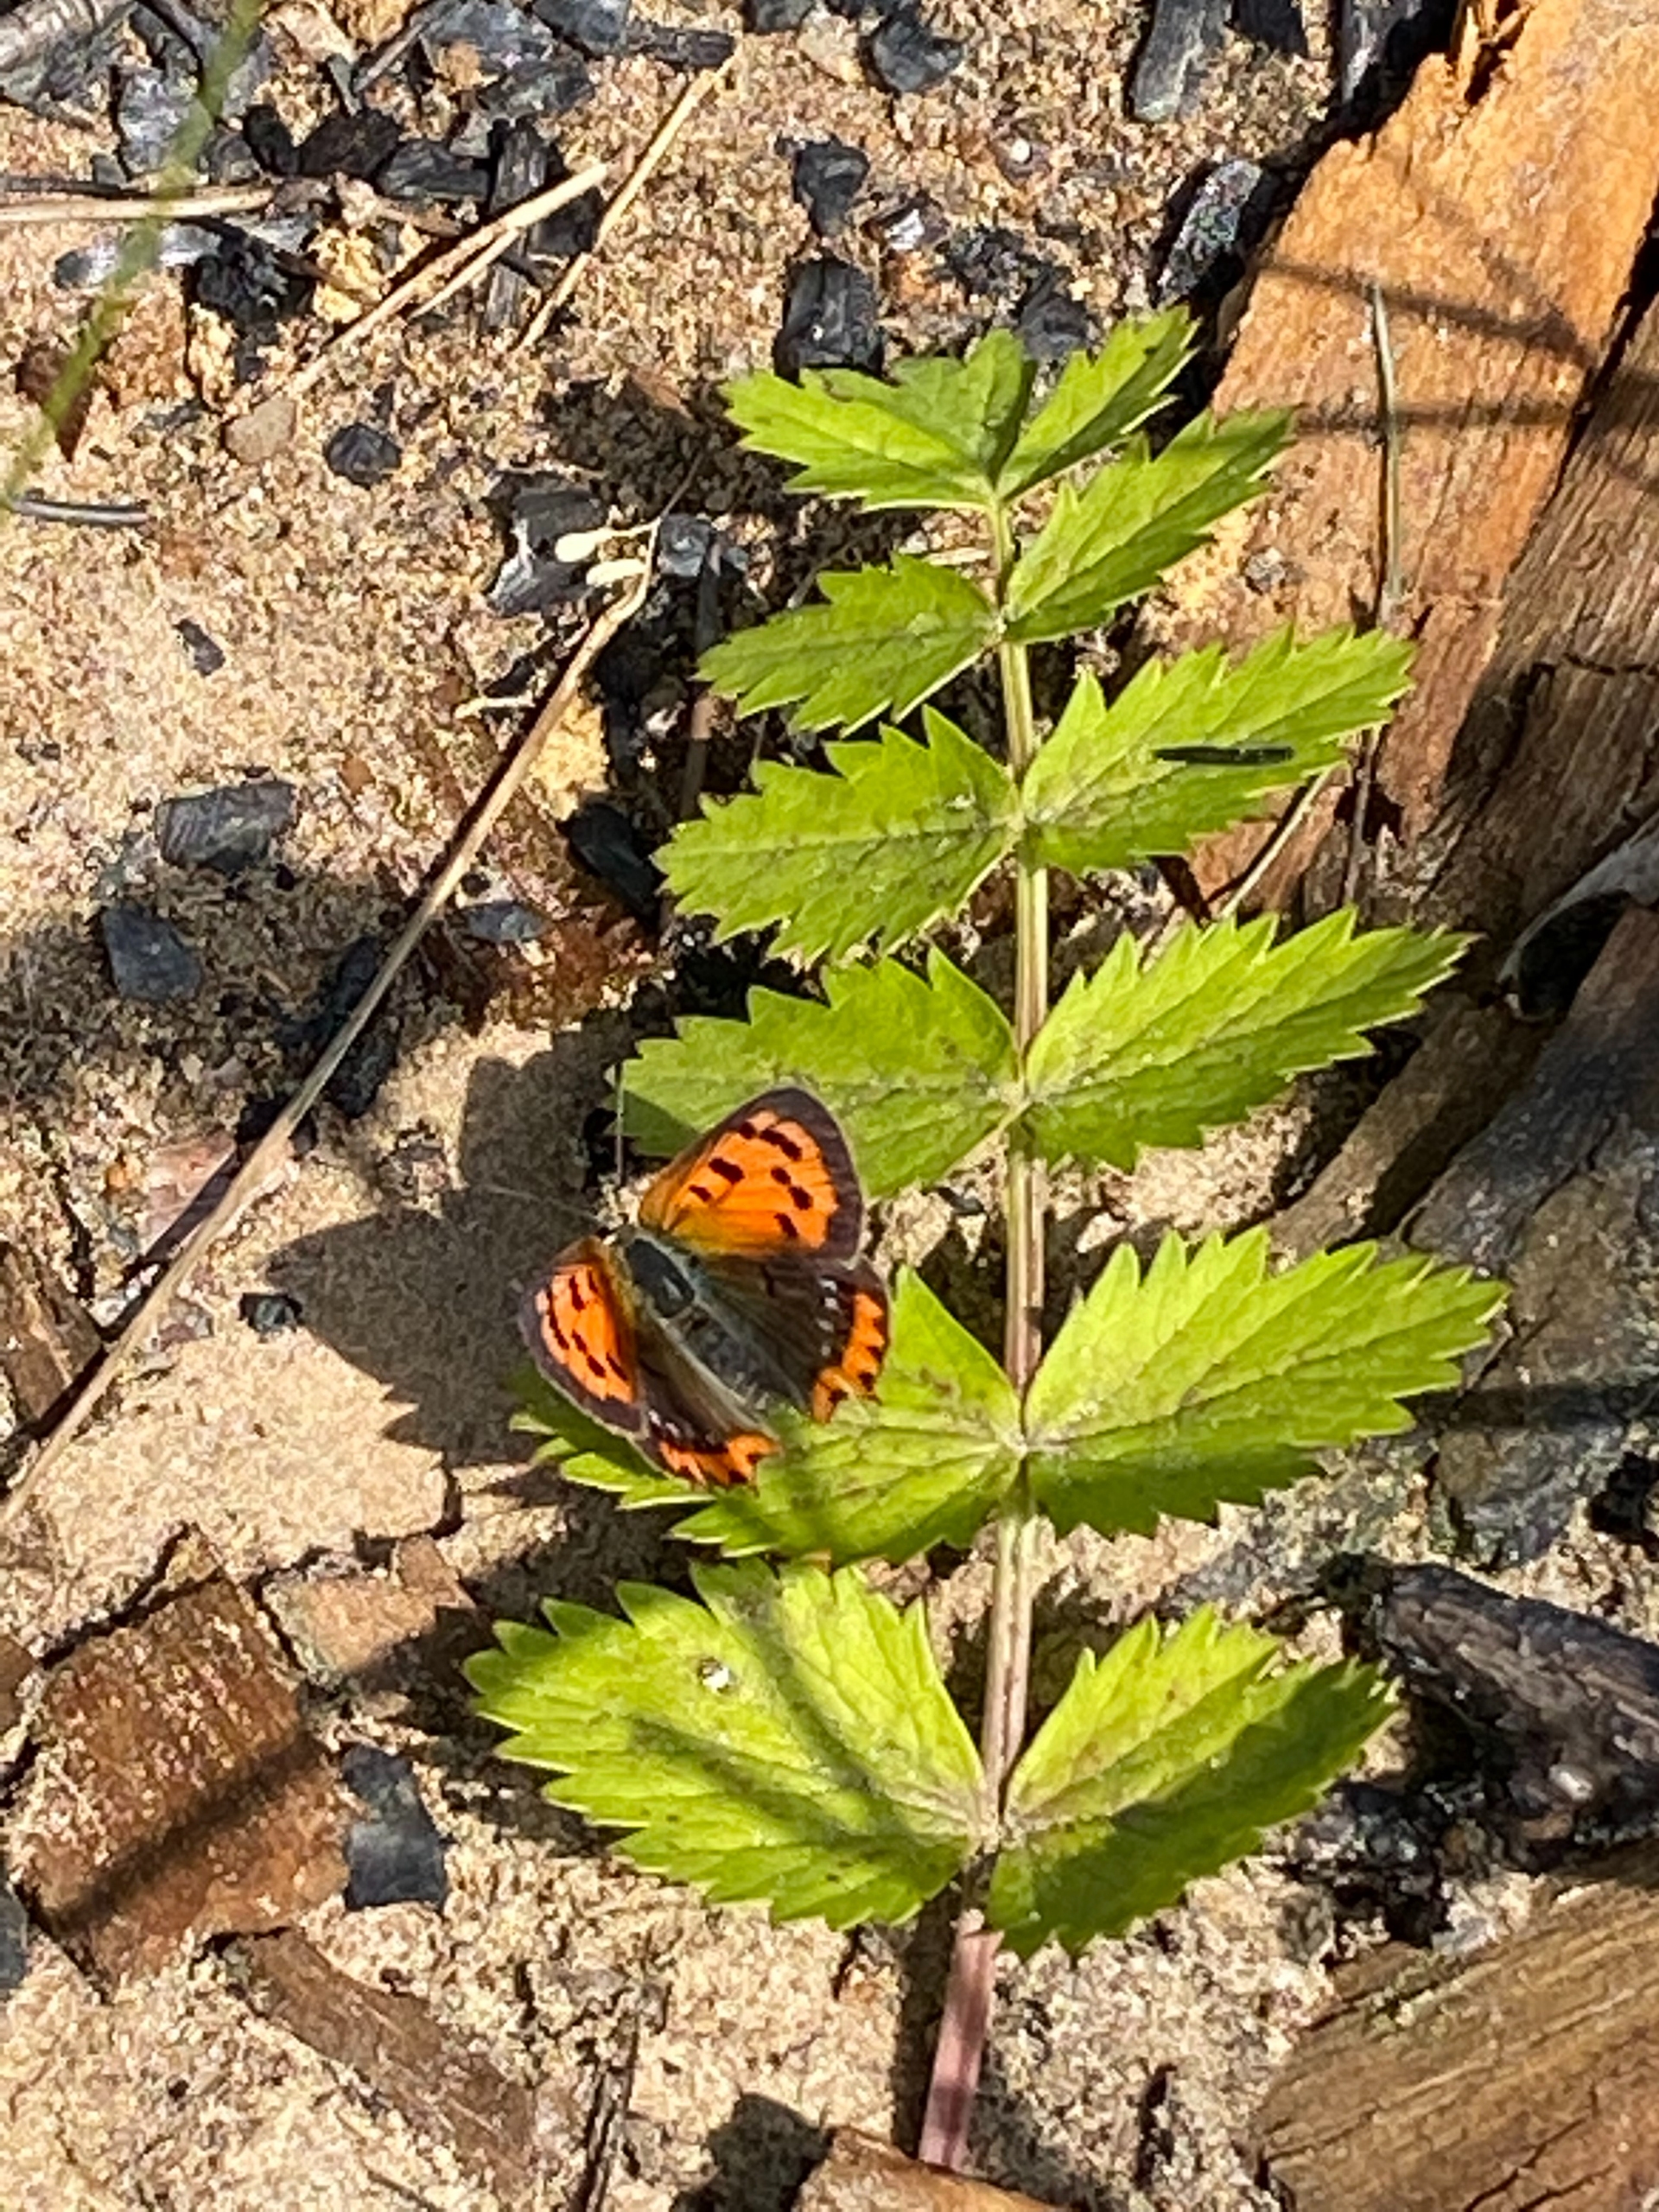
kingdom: Animalia
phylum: Arthropoda
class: Insecta
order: Lepidoptera
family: Lycaenidae
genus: Lycaena
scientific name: Lycaena phlaeas
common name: Lille ildfugl
